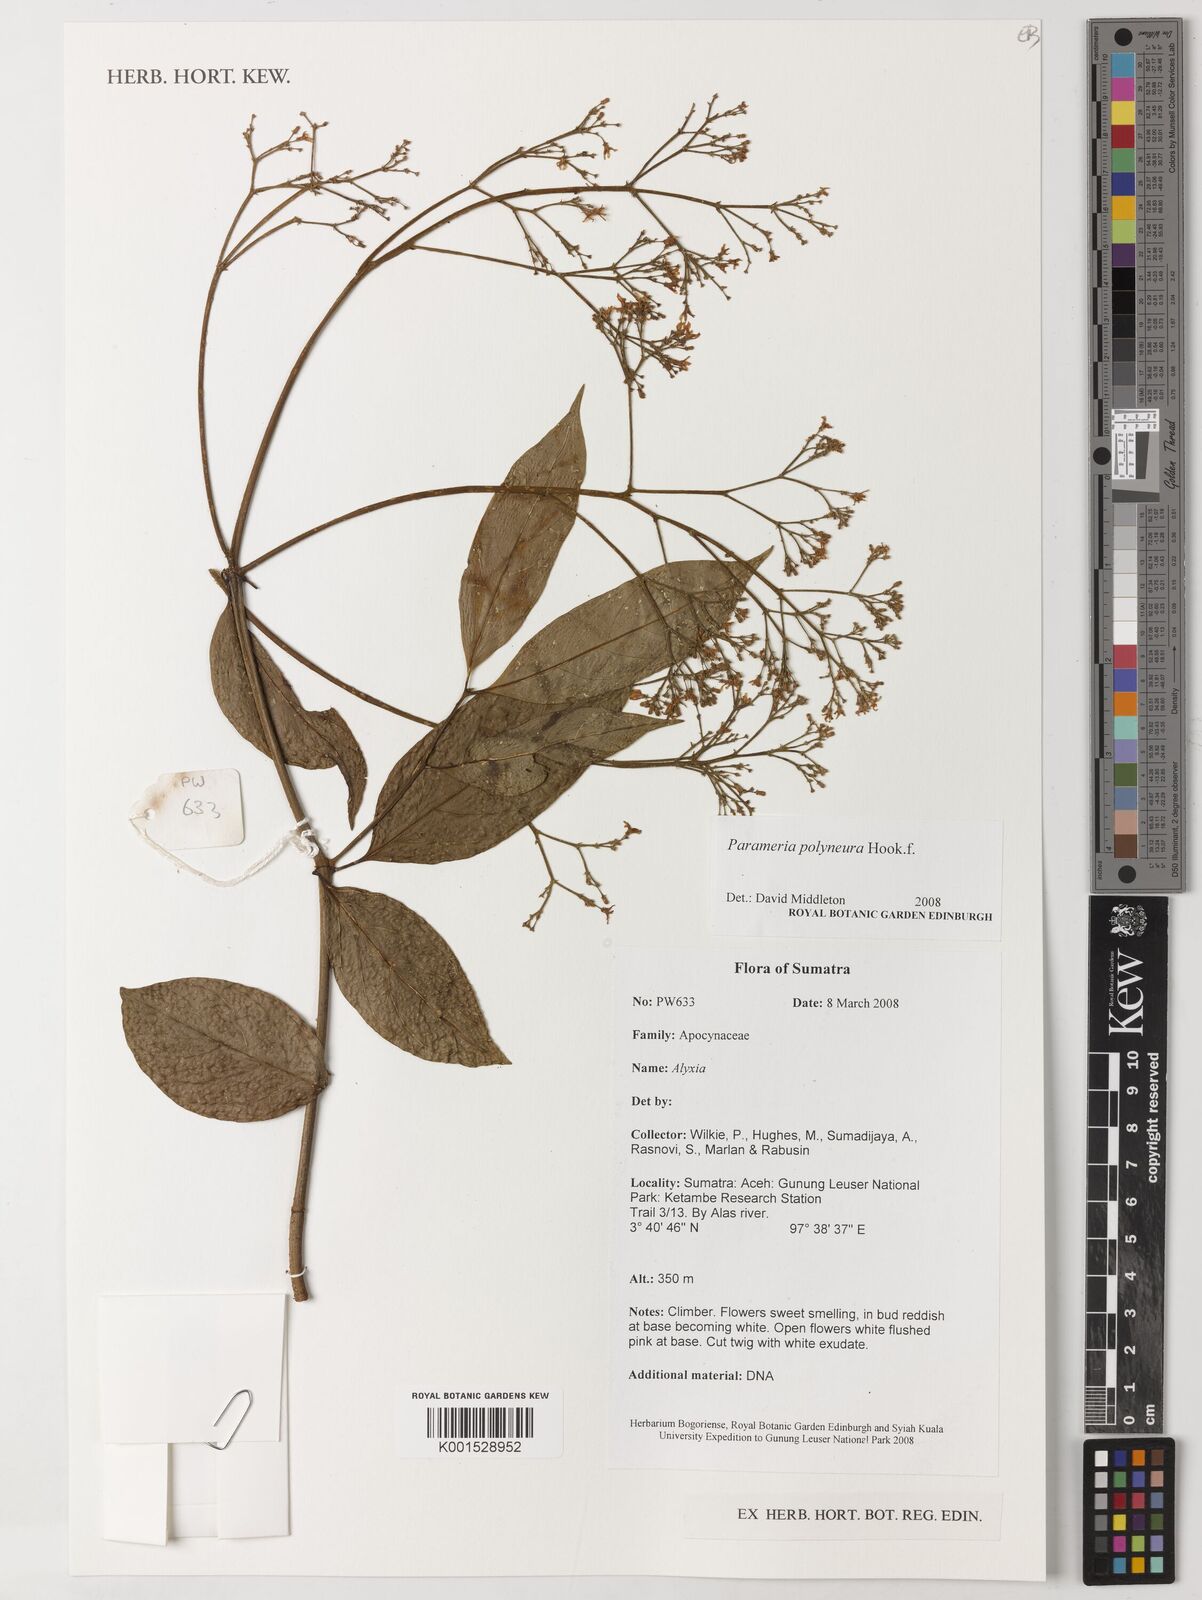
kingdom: Plantae
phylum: Tracheophyta
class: Magnoliopsida
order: Gentianales
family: Apocynaceae
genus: Urceola
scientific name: Urceola polyneura
